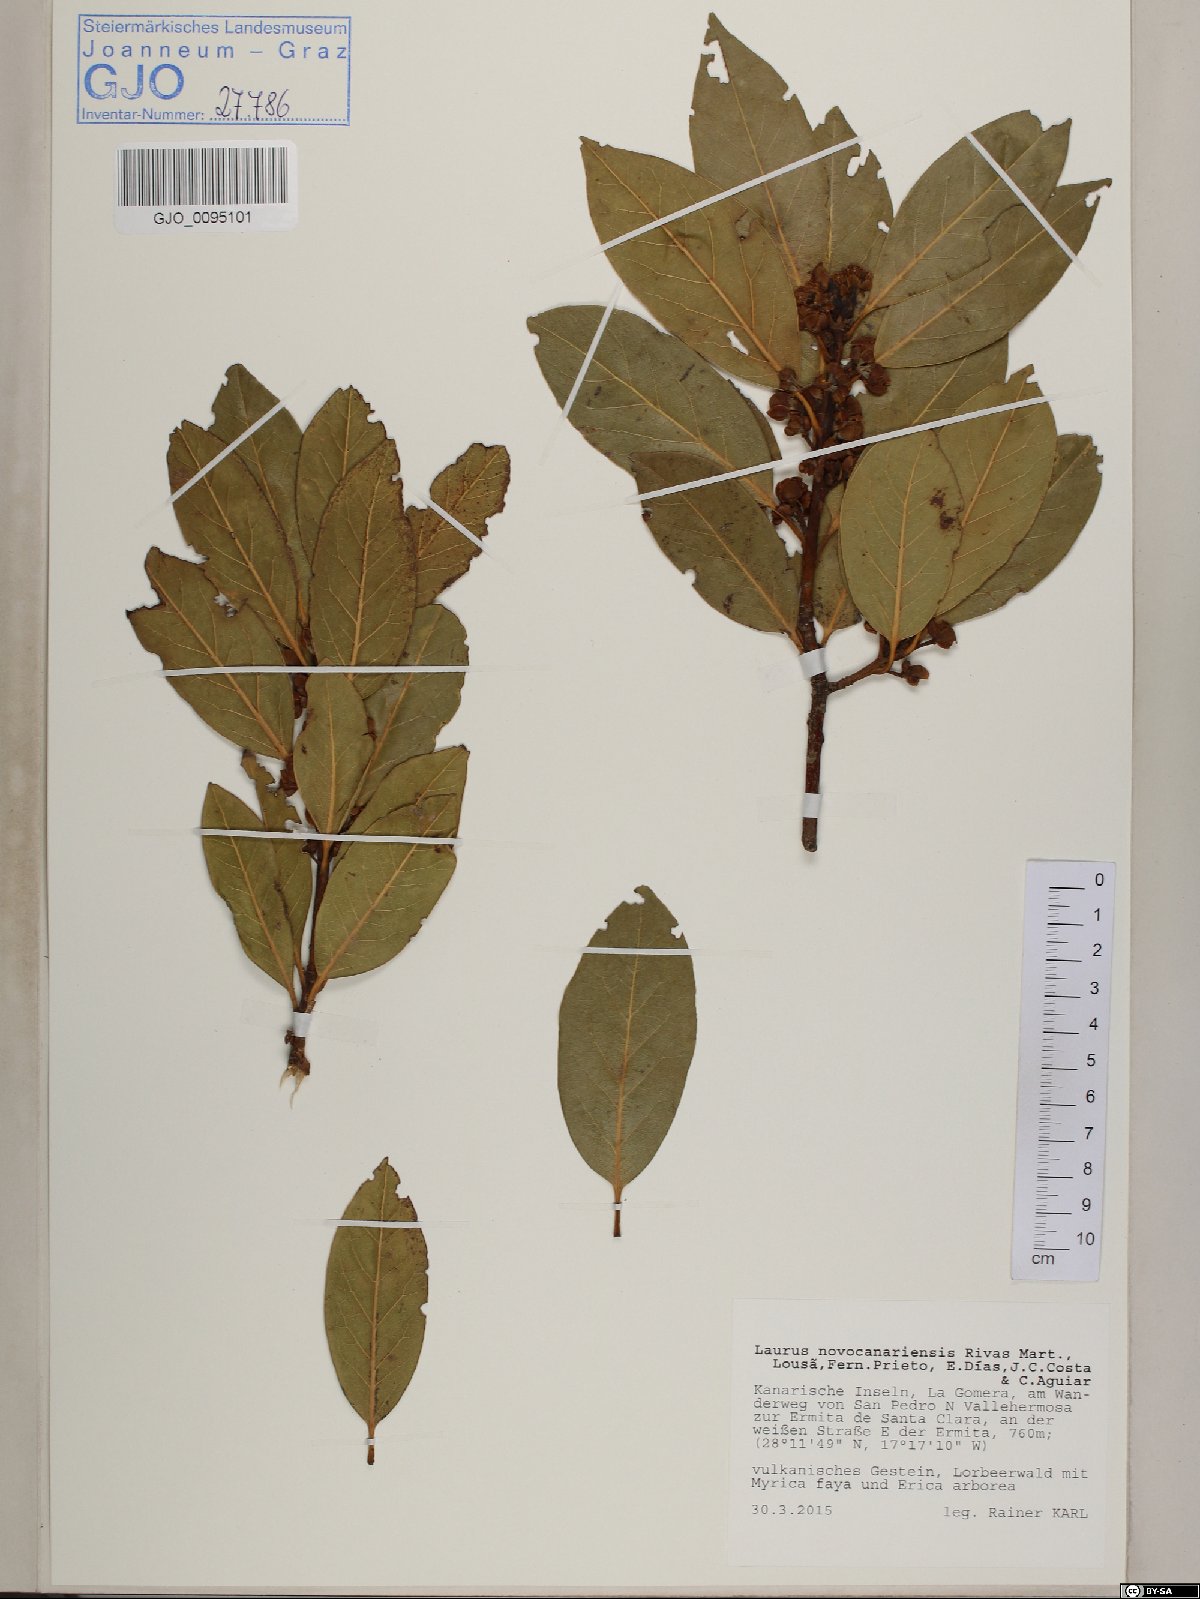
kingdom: Plantae
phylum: Tracheophyta
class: Magnoliopsida
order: Laurales
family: Lauraceae
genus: Laurus
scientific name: Laurus novocanariensis
